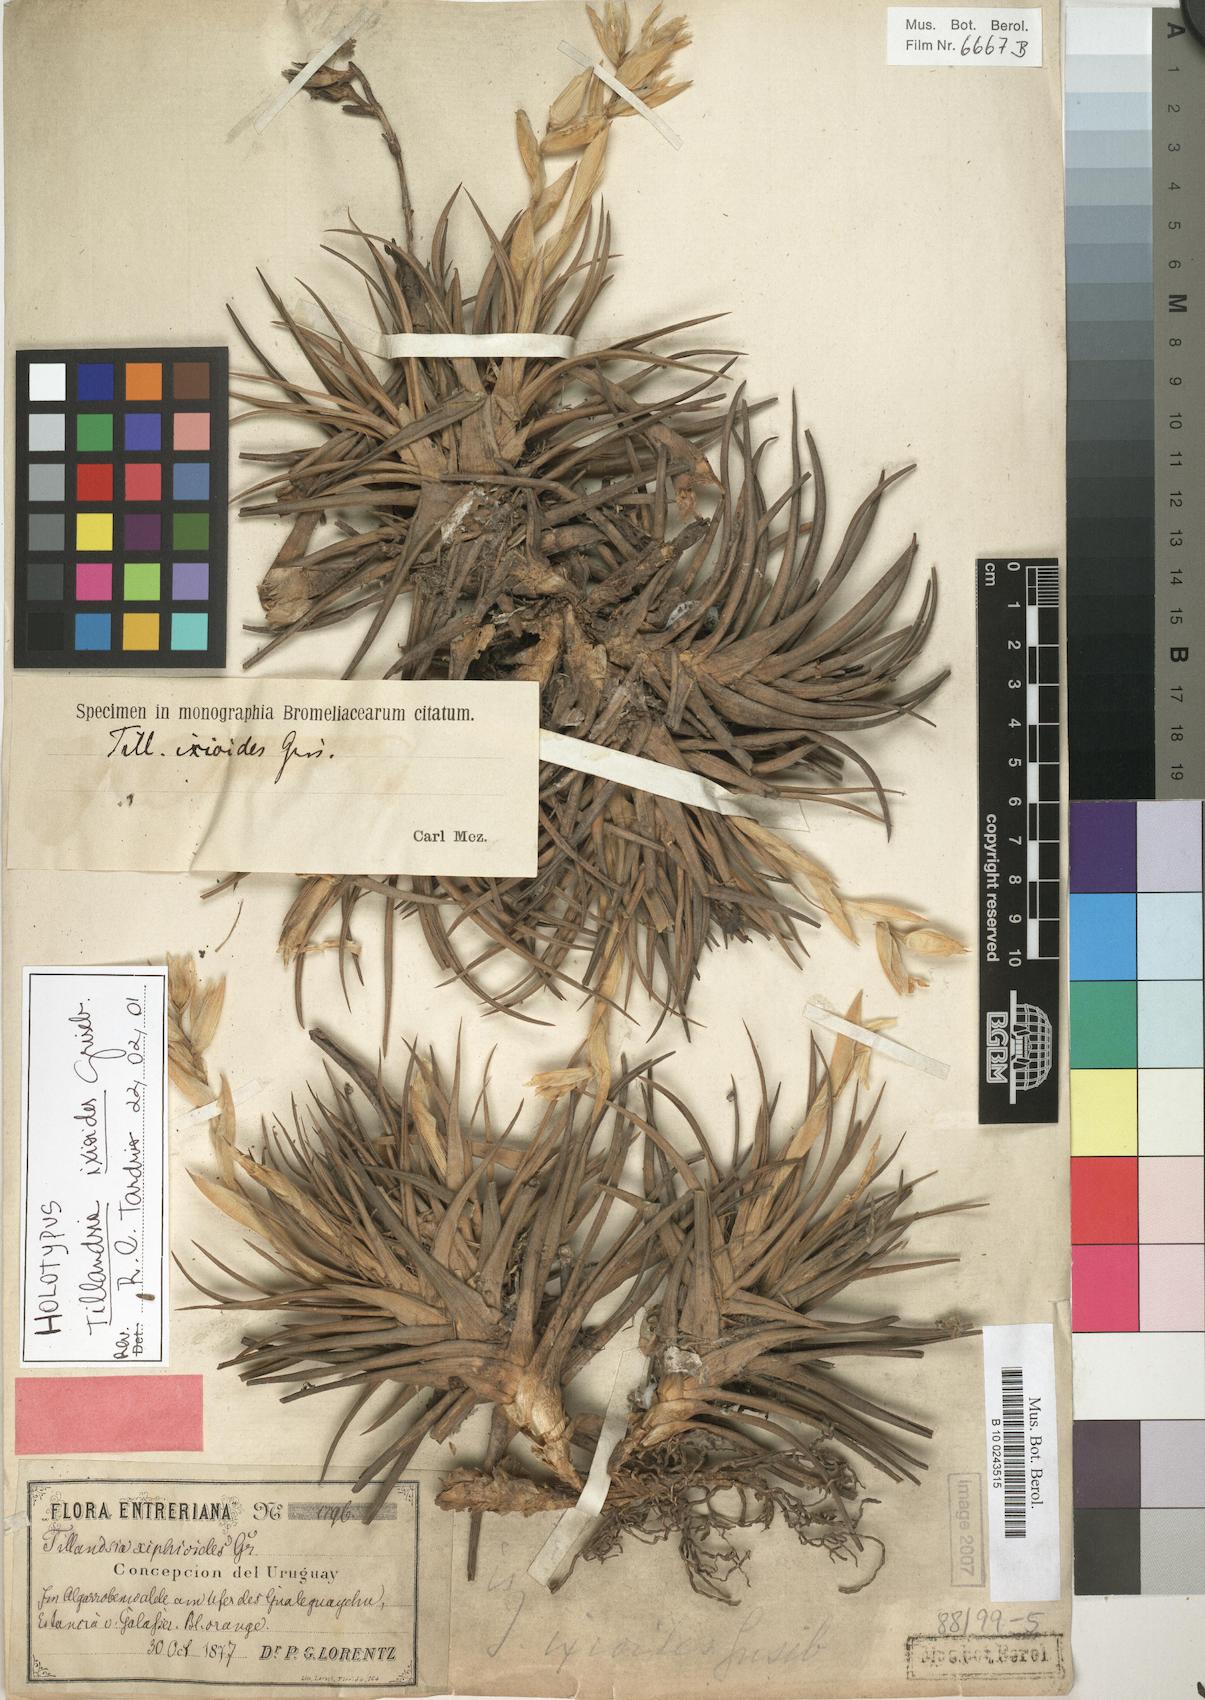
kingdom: Plantae
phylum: Tracheophyta
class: Liliopsida
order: Poales
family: Bromeliaceae
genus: Tillandsia
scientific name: Tillandsia ixioides
